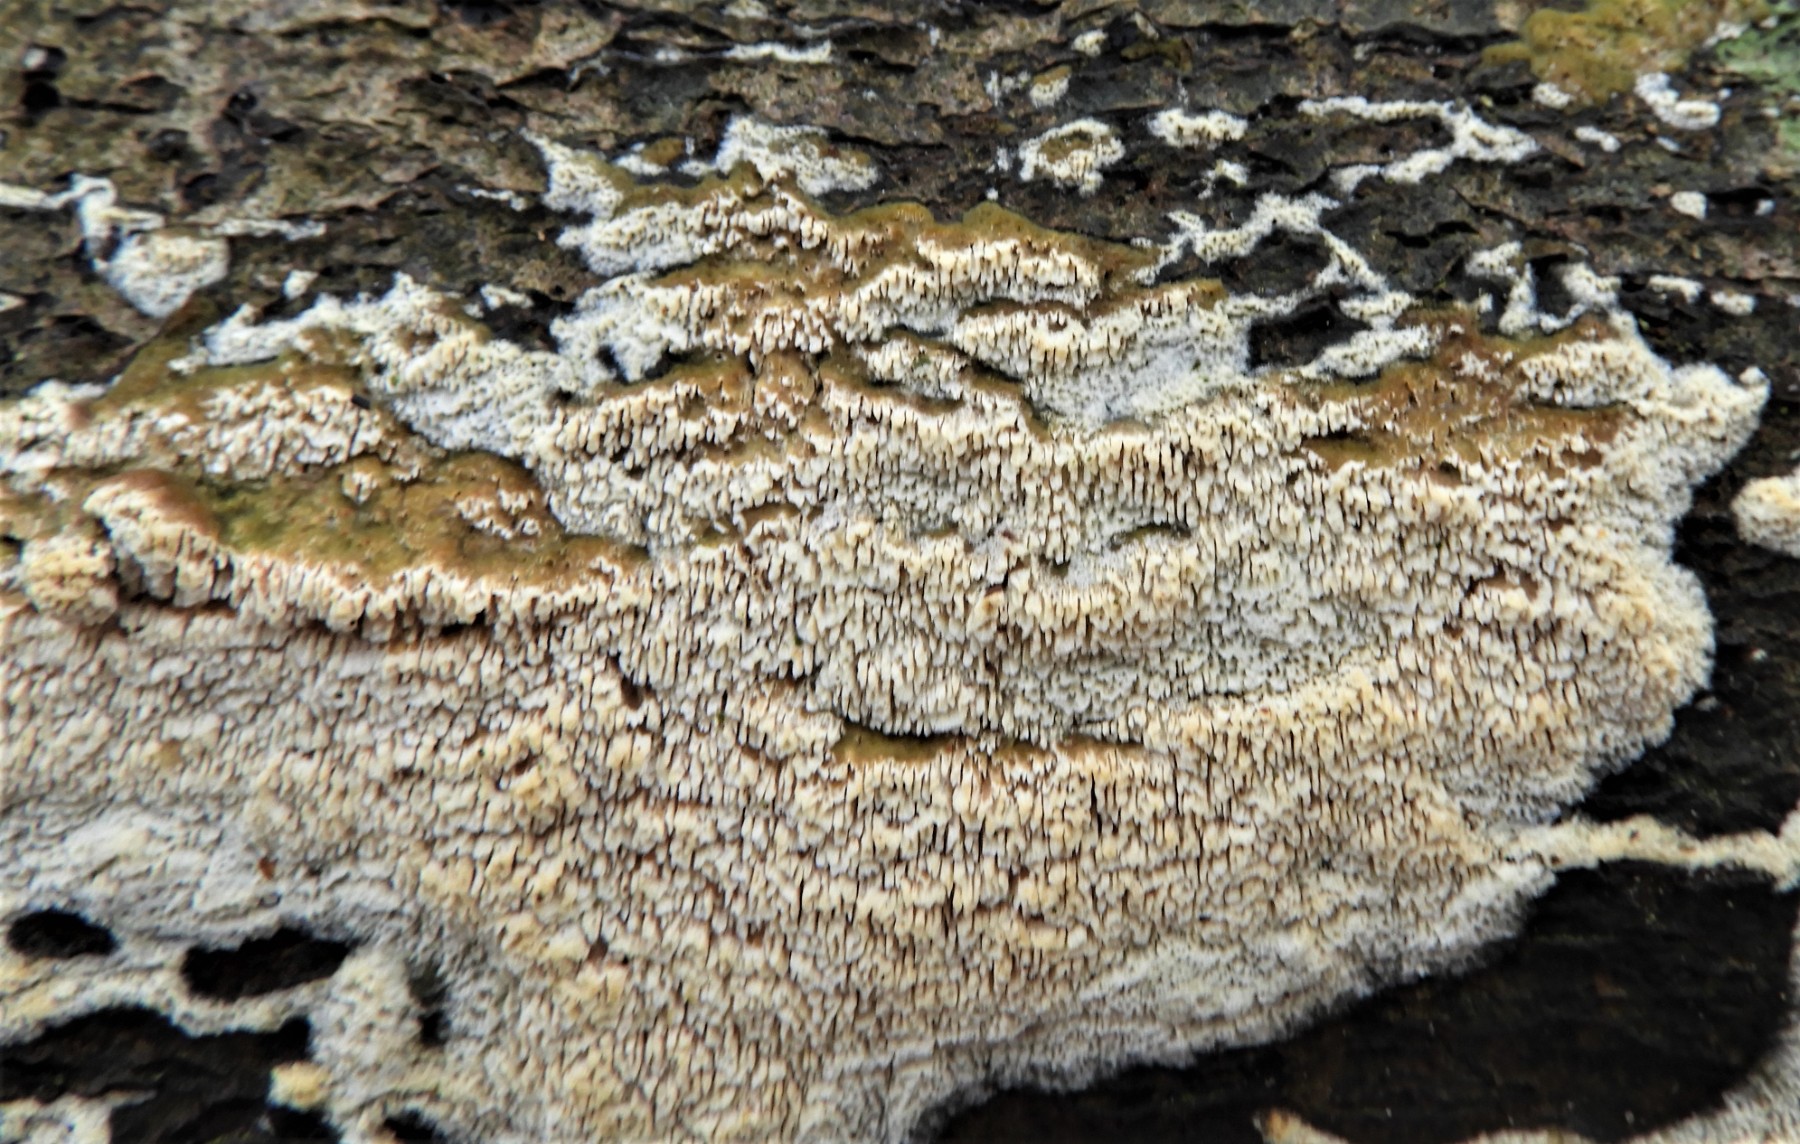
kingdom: Fungi
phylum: Basidiomycota
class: Agaricomycetes
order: Hymenochaetales
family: Schizoporaceae
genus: Schizopora
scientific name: Schizopora paradoxa
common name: hvid tandsvamp
